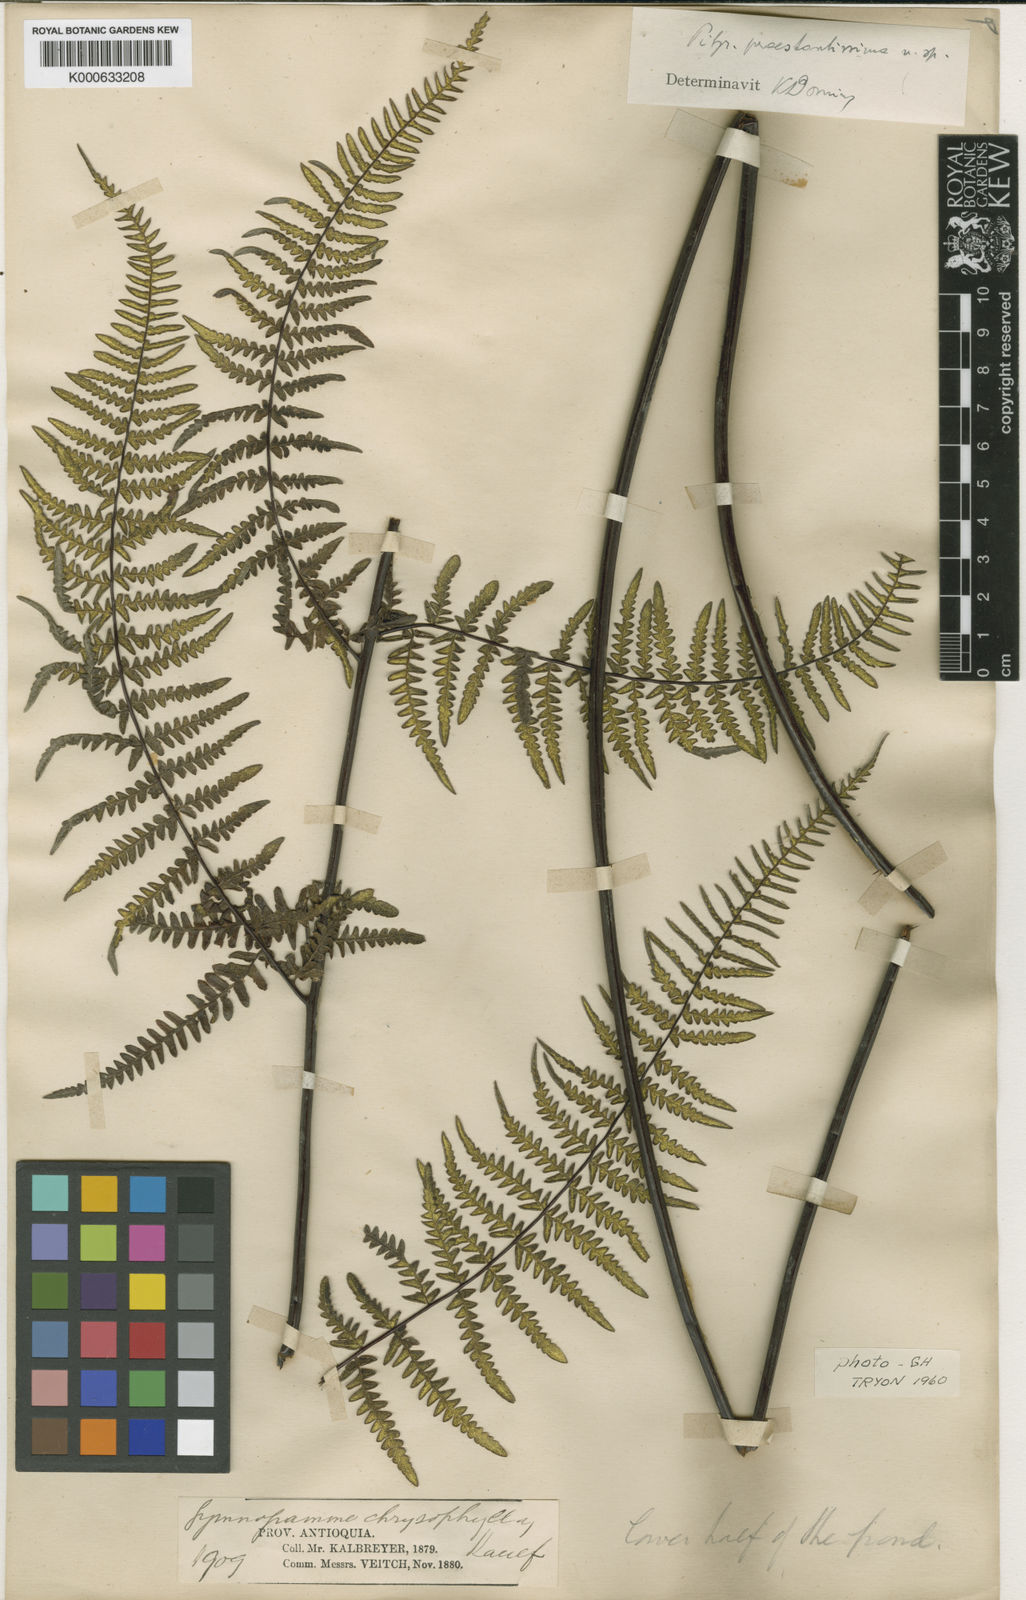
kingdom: Plantae
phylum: Tracheophyta
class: Polypodiopsida
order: Polypodiales
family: Pteridaceae
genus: Pityrogramma
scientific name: Pityrogramma ebenea
